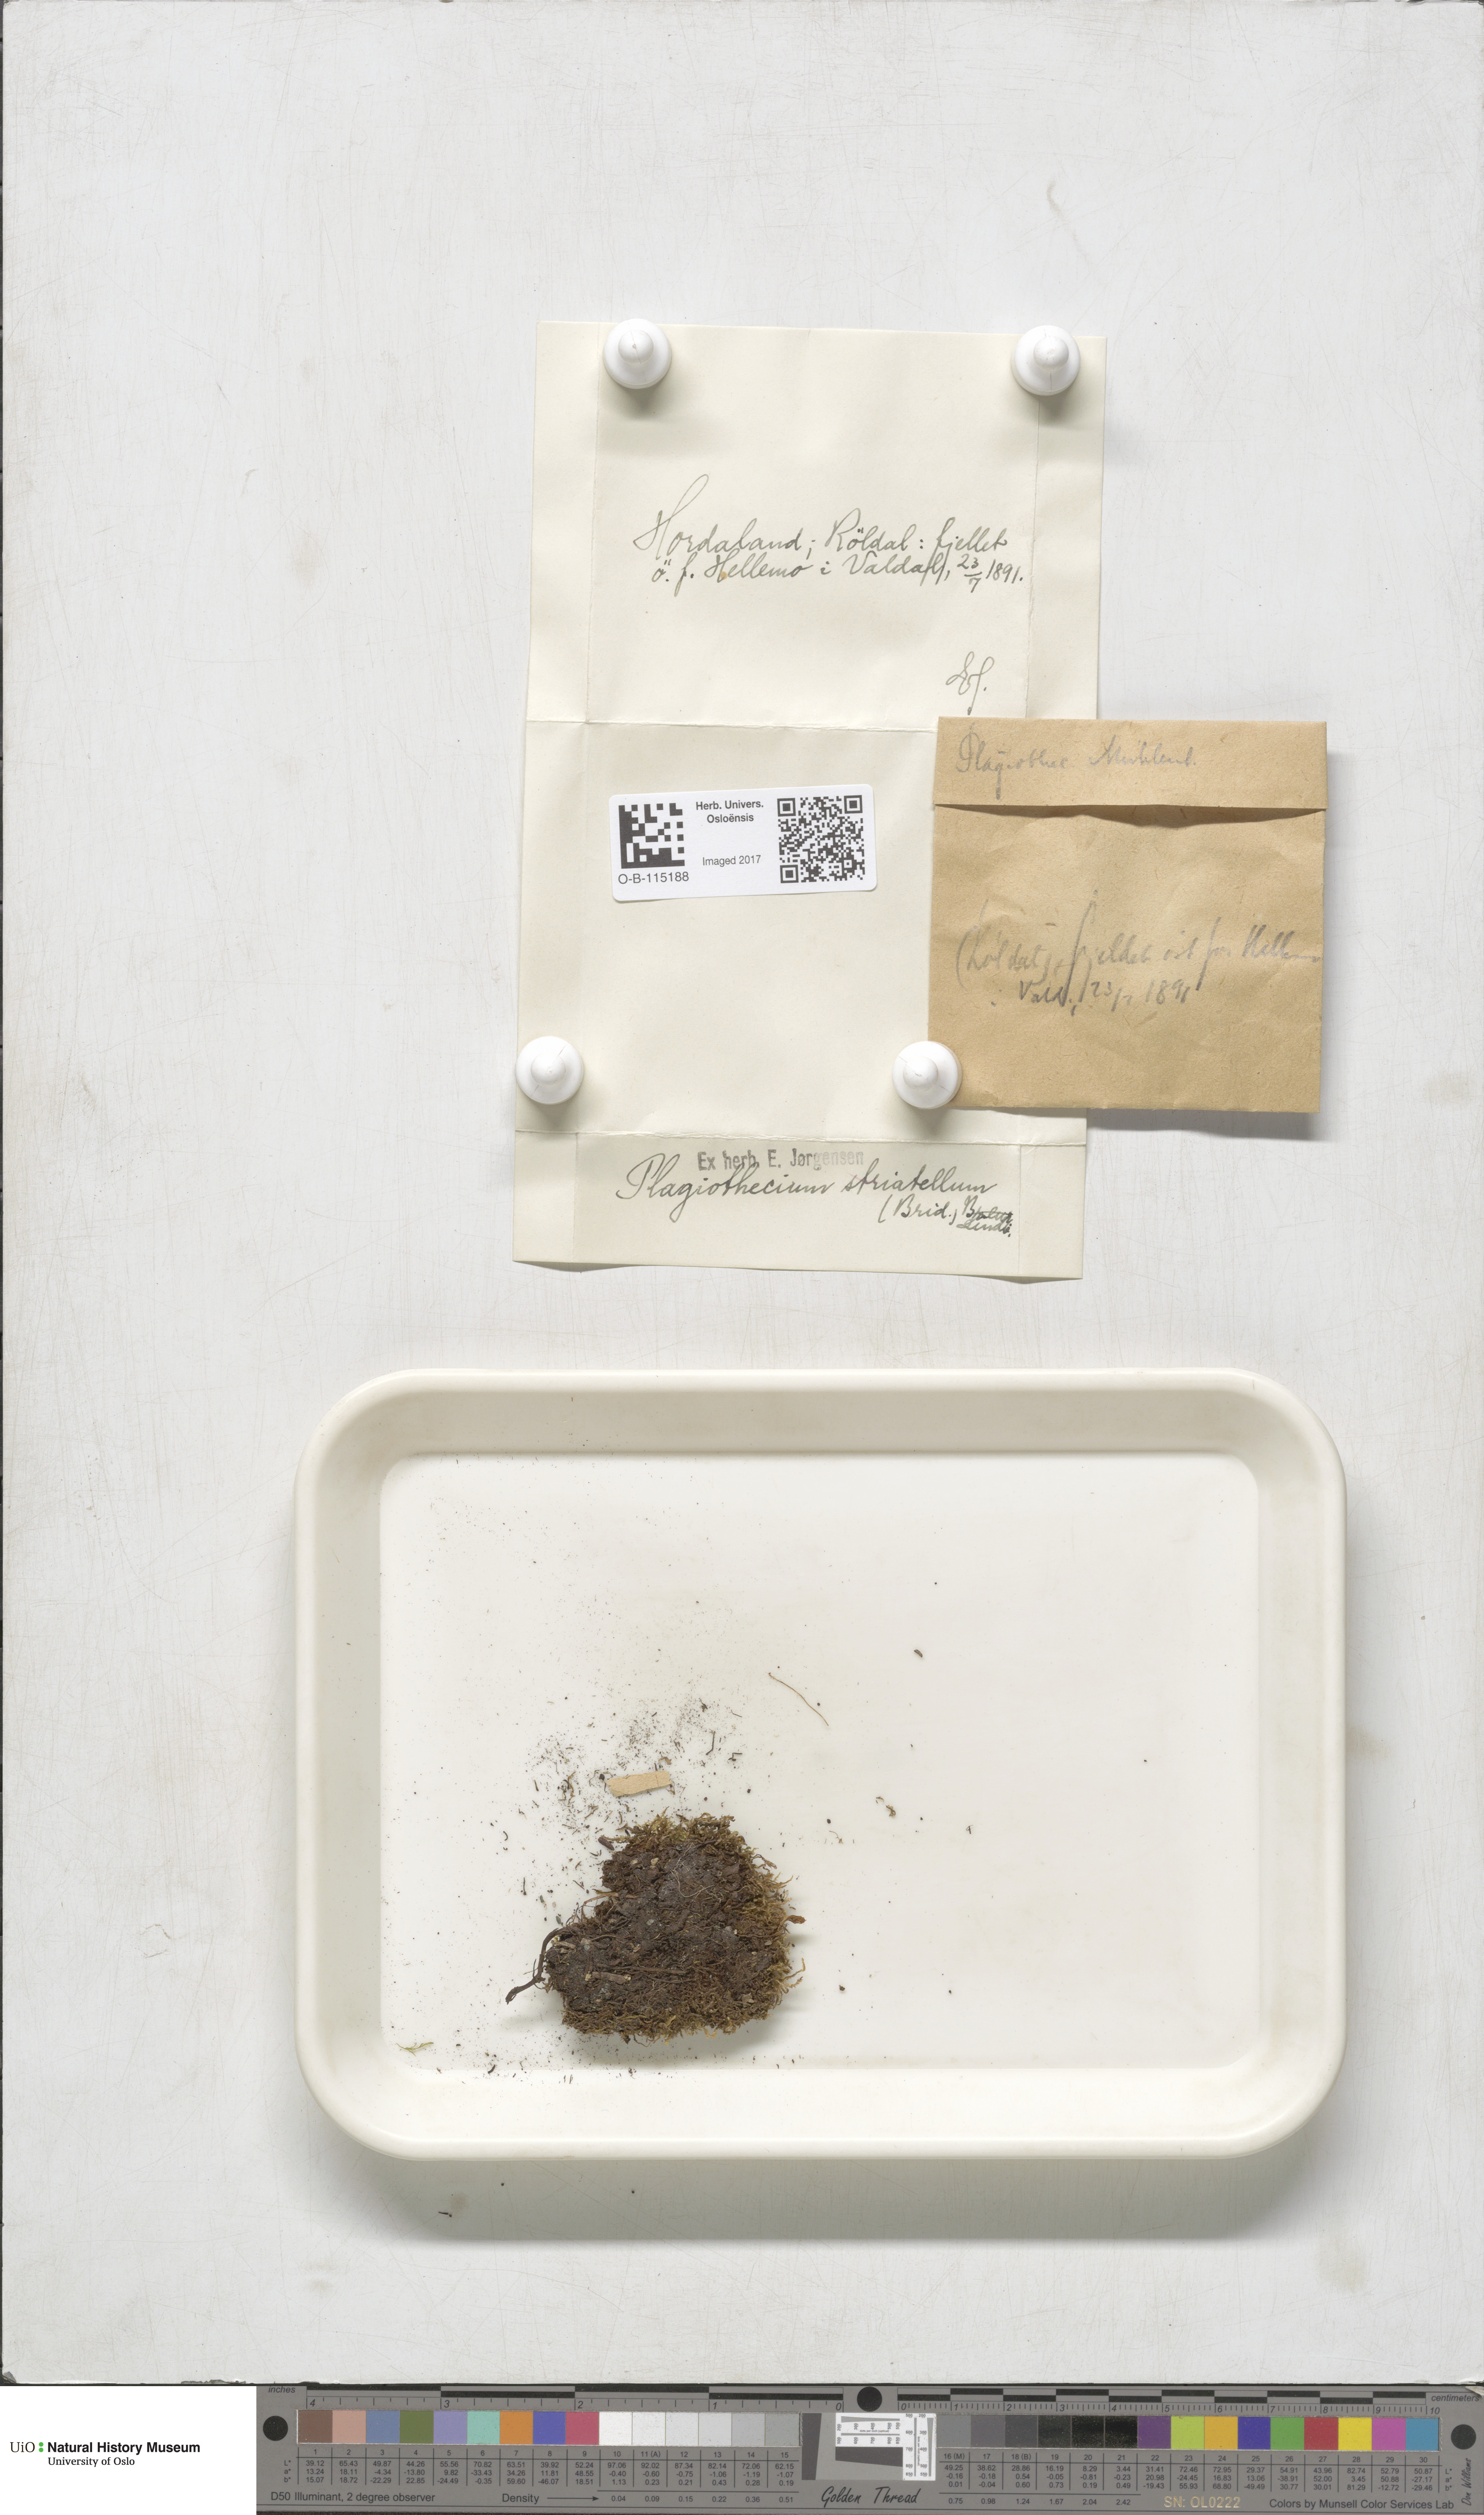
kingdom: Plantae
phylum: Bryophyta
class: Bryopsida
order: Hypnales
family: Plagiotheciaceae
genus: Herzogiella
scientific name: Herzogiella striatella
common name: Muhlenbeck's feather-moss
